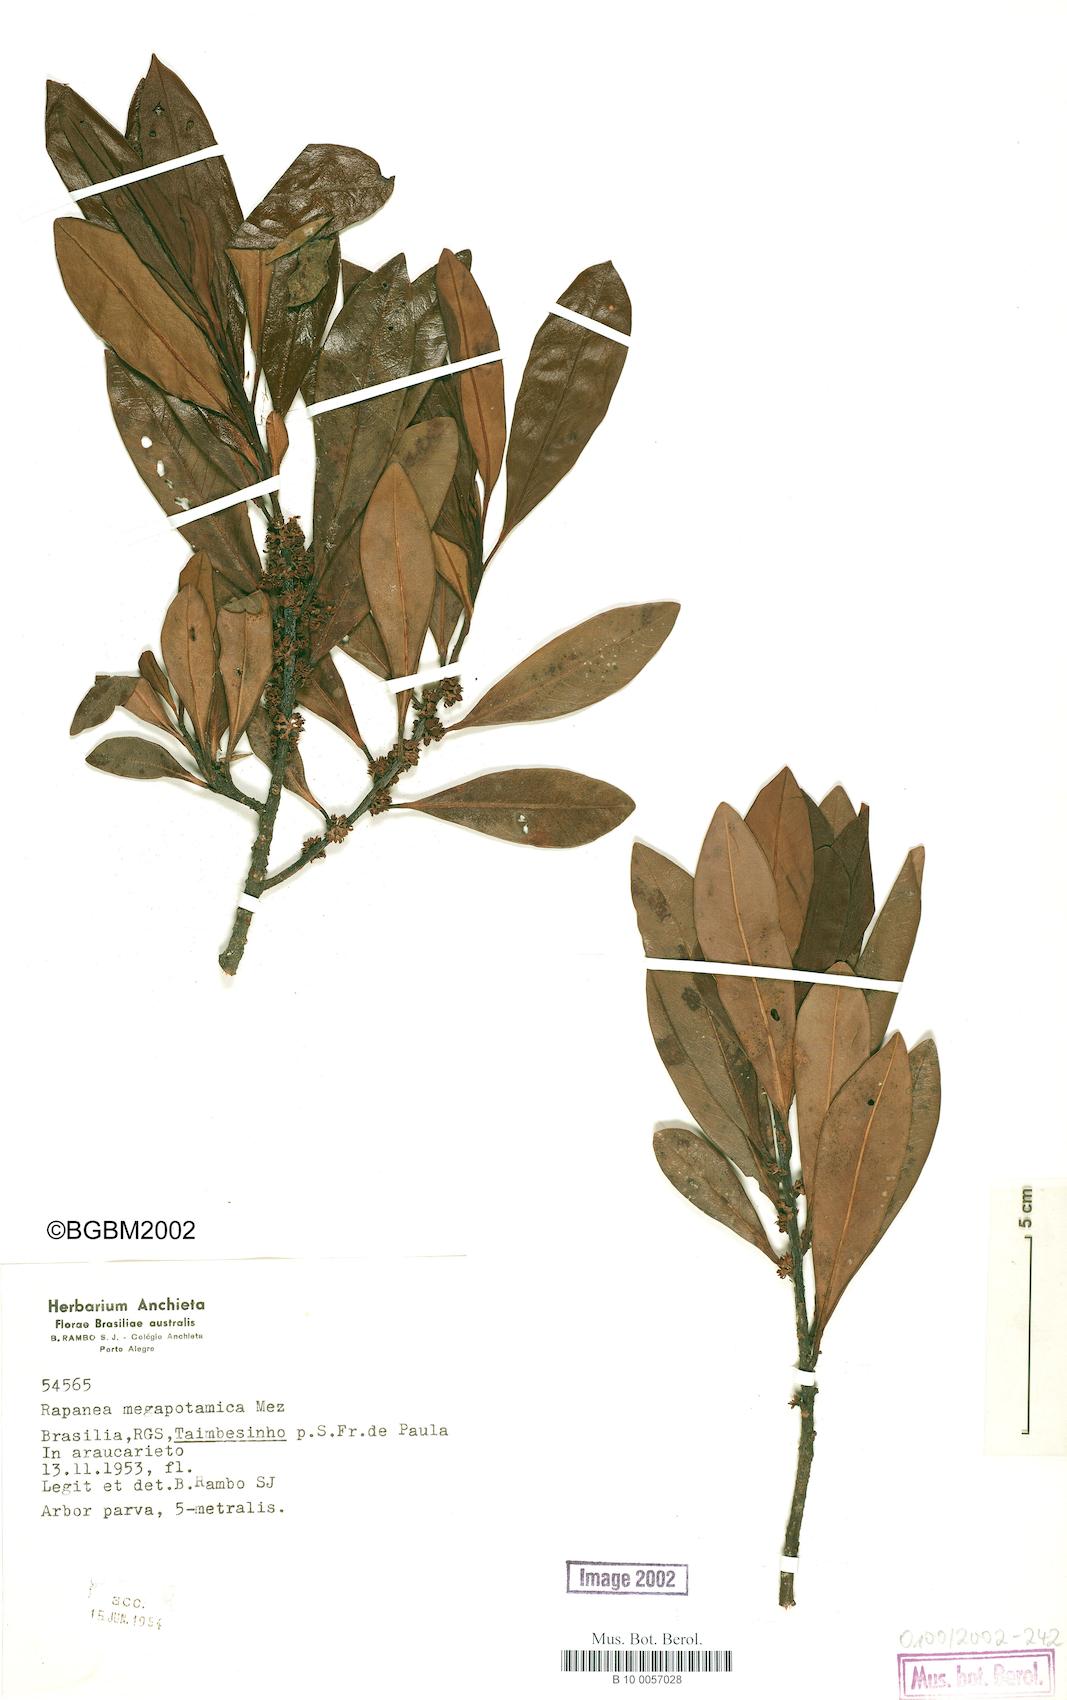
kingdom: Plantae
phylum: Tracheophyta
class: Magnoliopsida
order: Ericales
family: Primulaceae
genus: Myrsine
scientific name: Myrsine lorentziana
